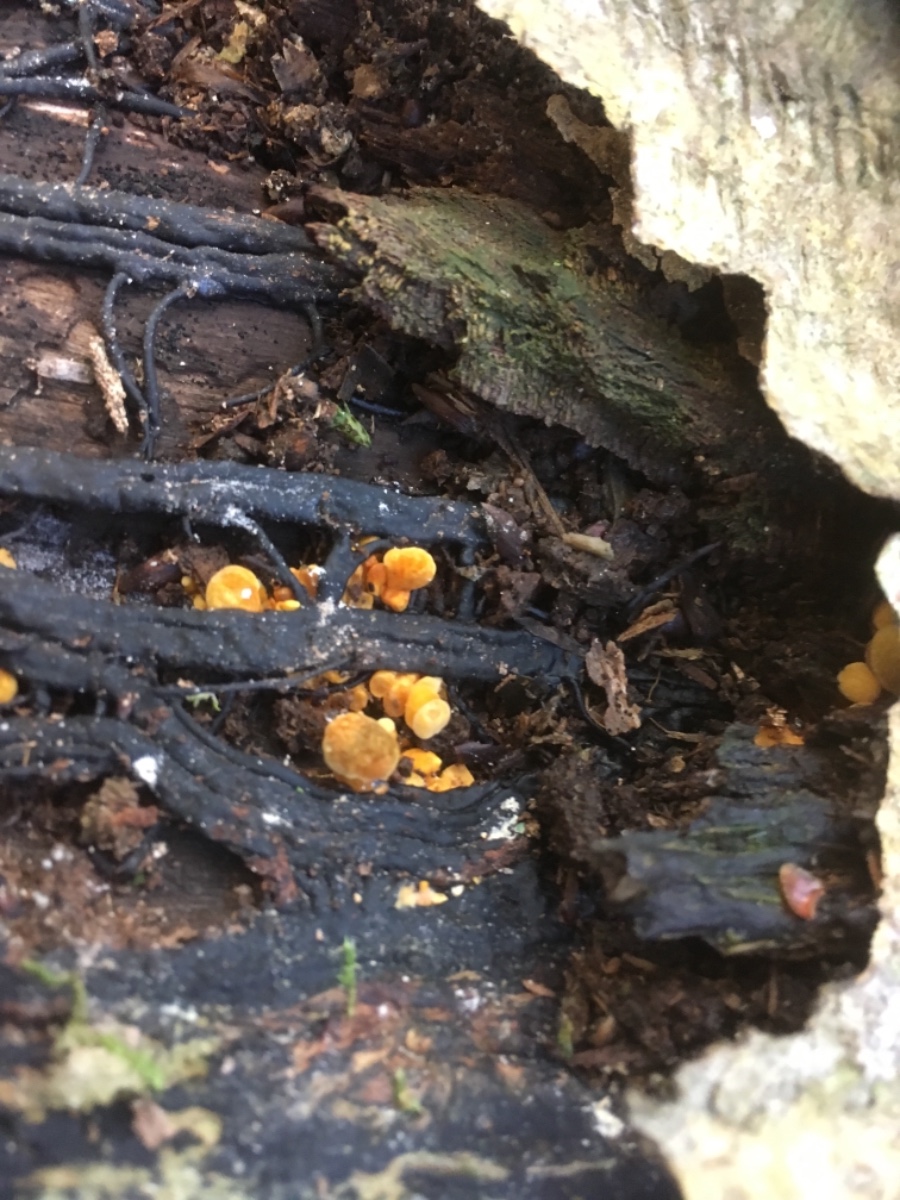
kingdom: Fungi
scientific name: Fungi
